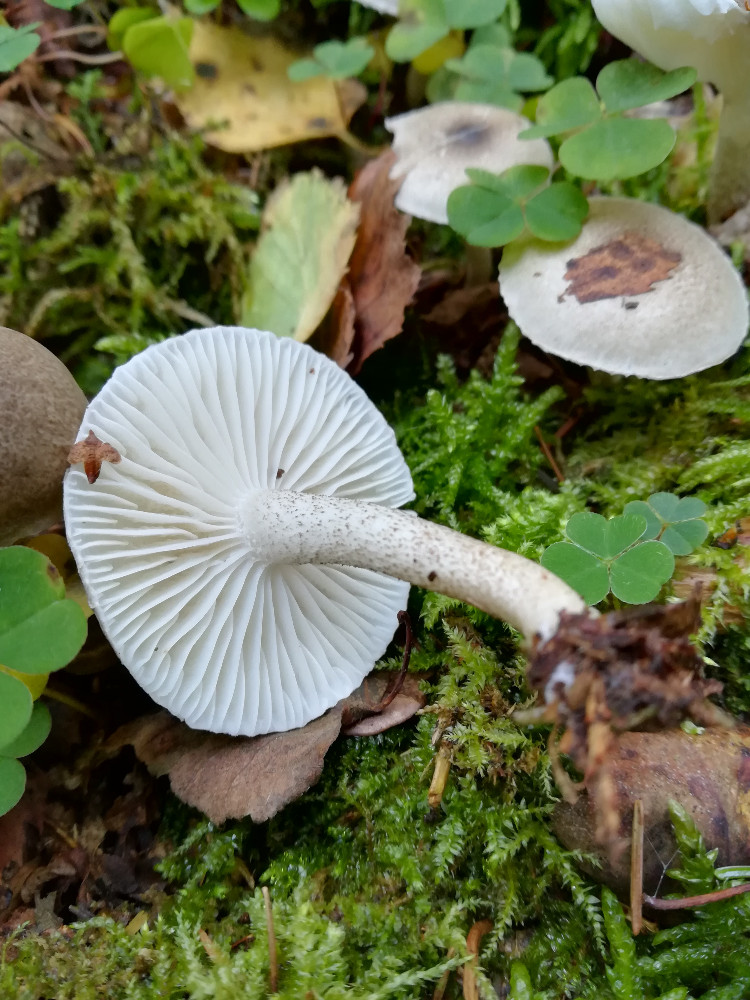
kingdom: Fungi
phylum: Basidiomycota
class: Agaricomycetes
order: Agaricales
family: Hygrophoraceae
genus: Hygrophorus
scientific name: Hygrophorus pustulatus
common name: mørkprikket sneglehat
